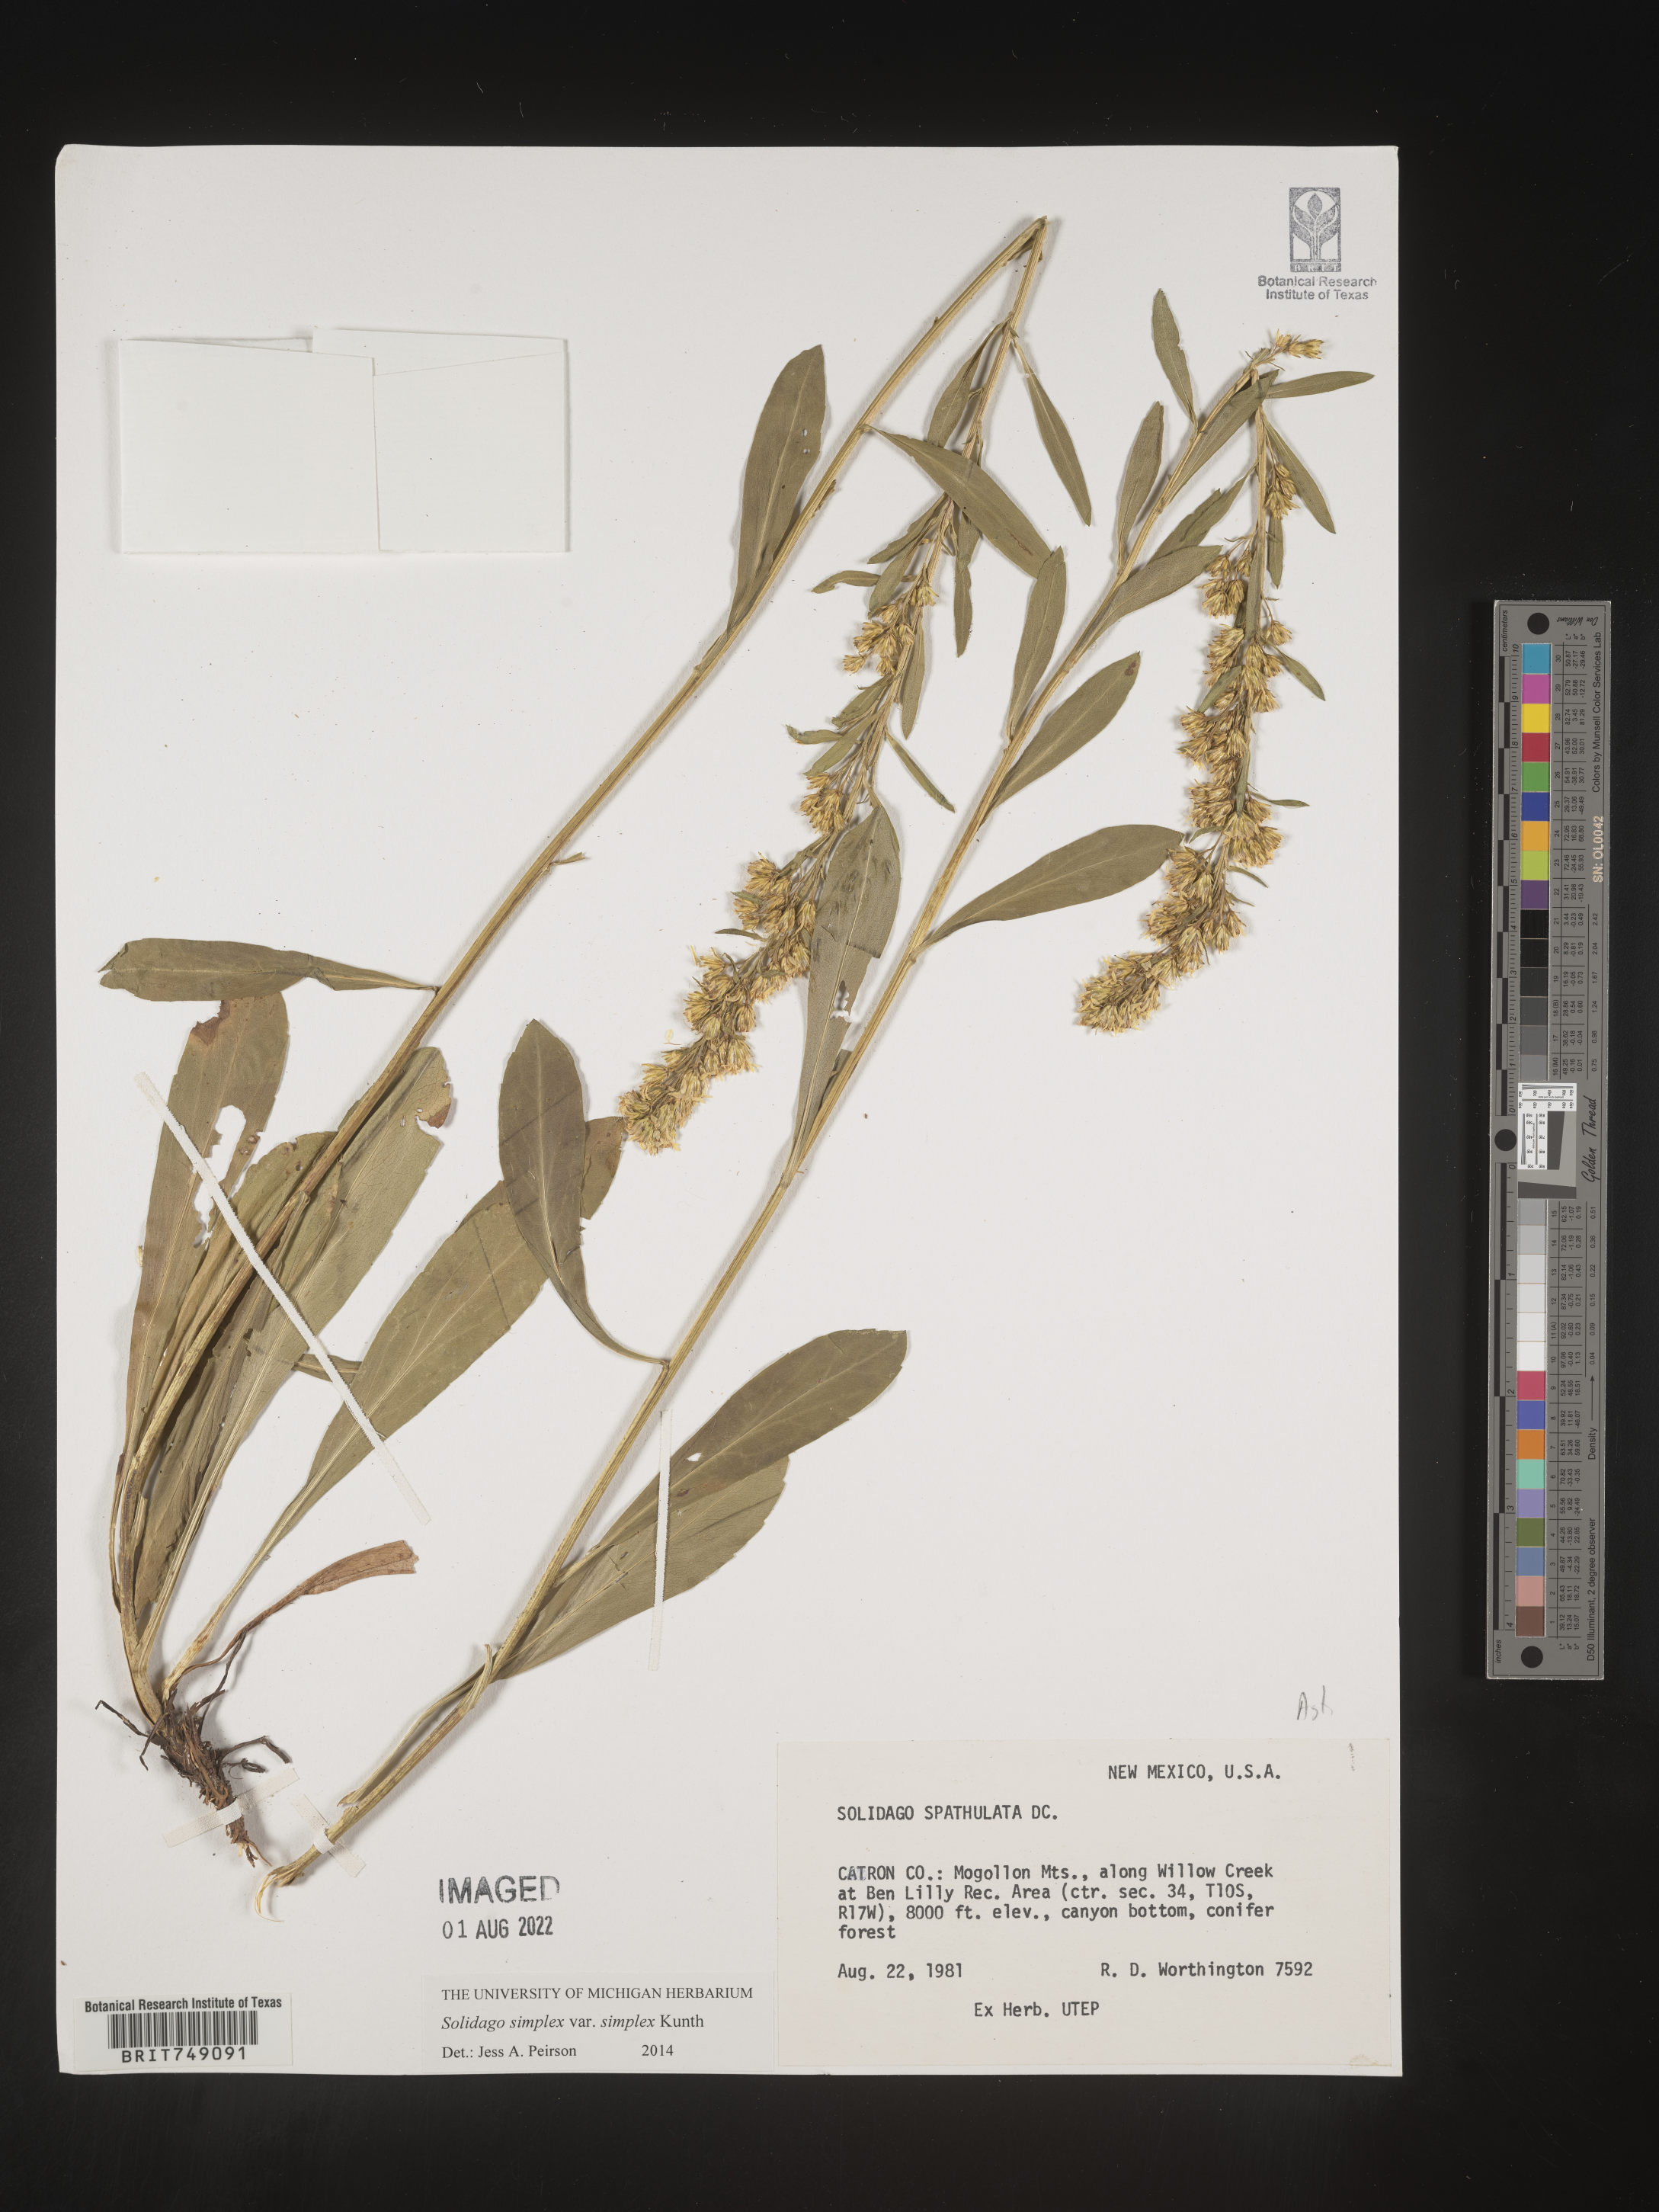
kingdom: Plantae
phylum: Tracheophyta
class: Magnoliopsida
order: Asterales
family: Asteraceae
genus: Solidago
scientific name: Solidago simplex
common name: Sticky goldenrod
